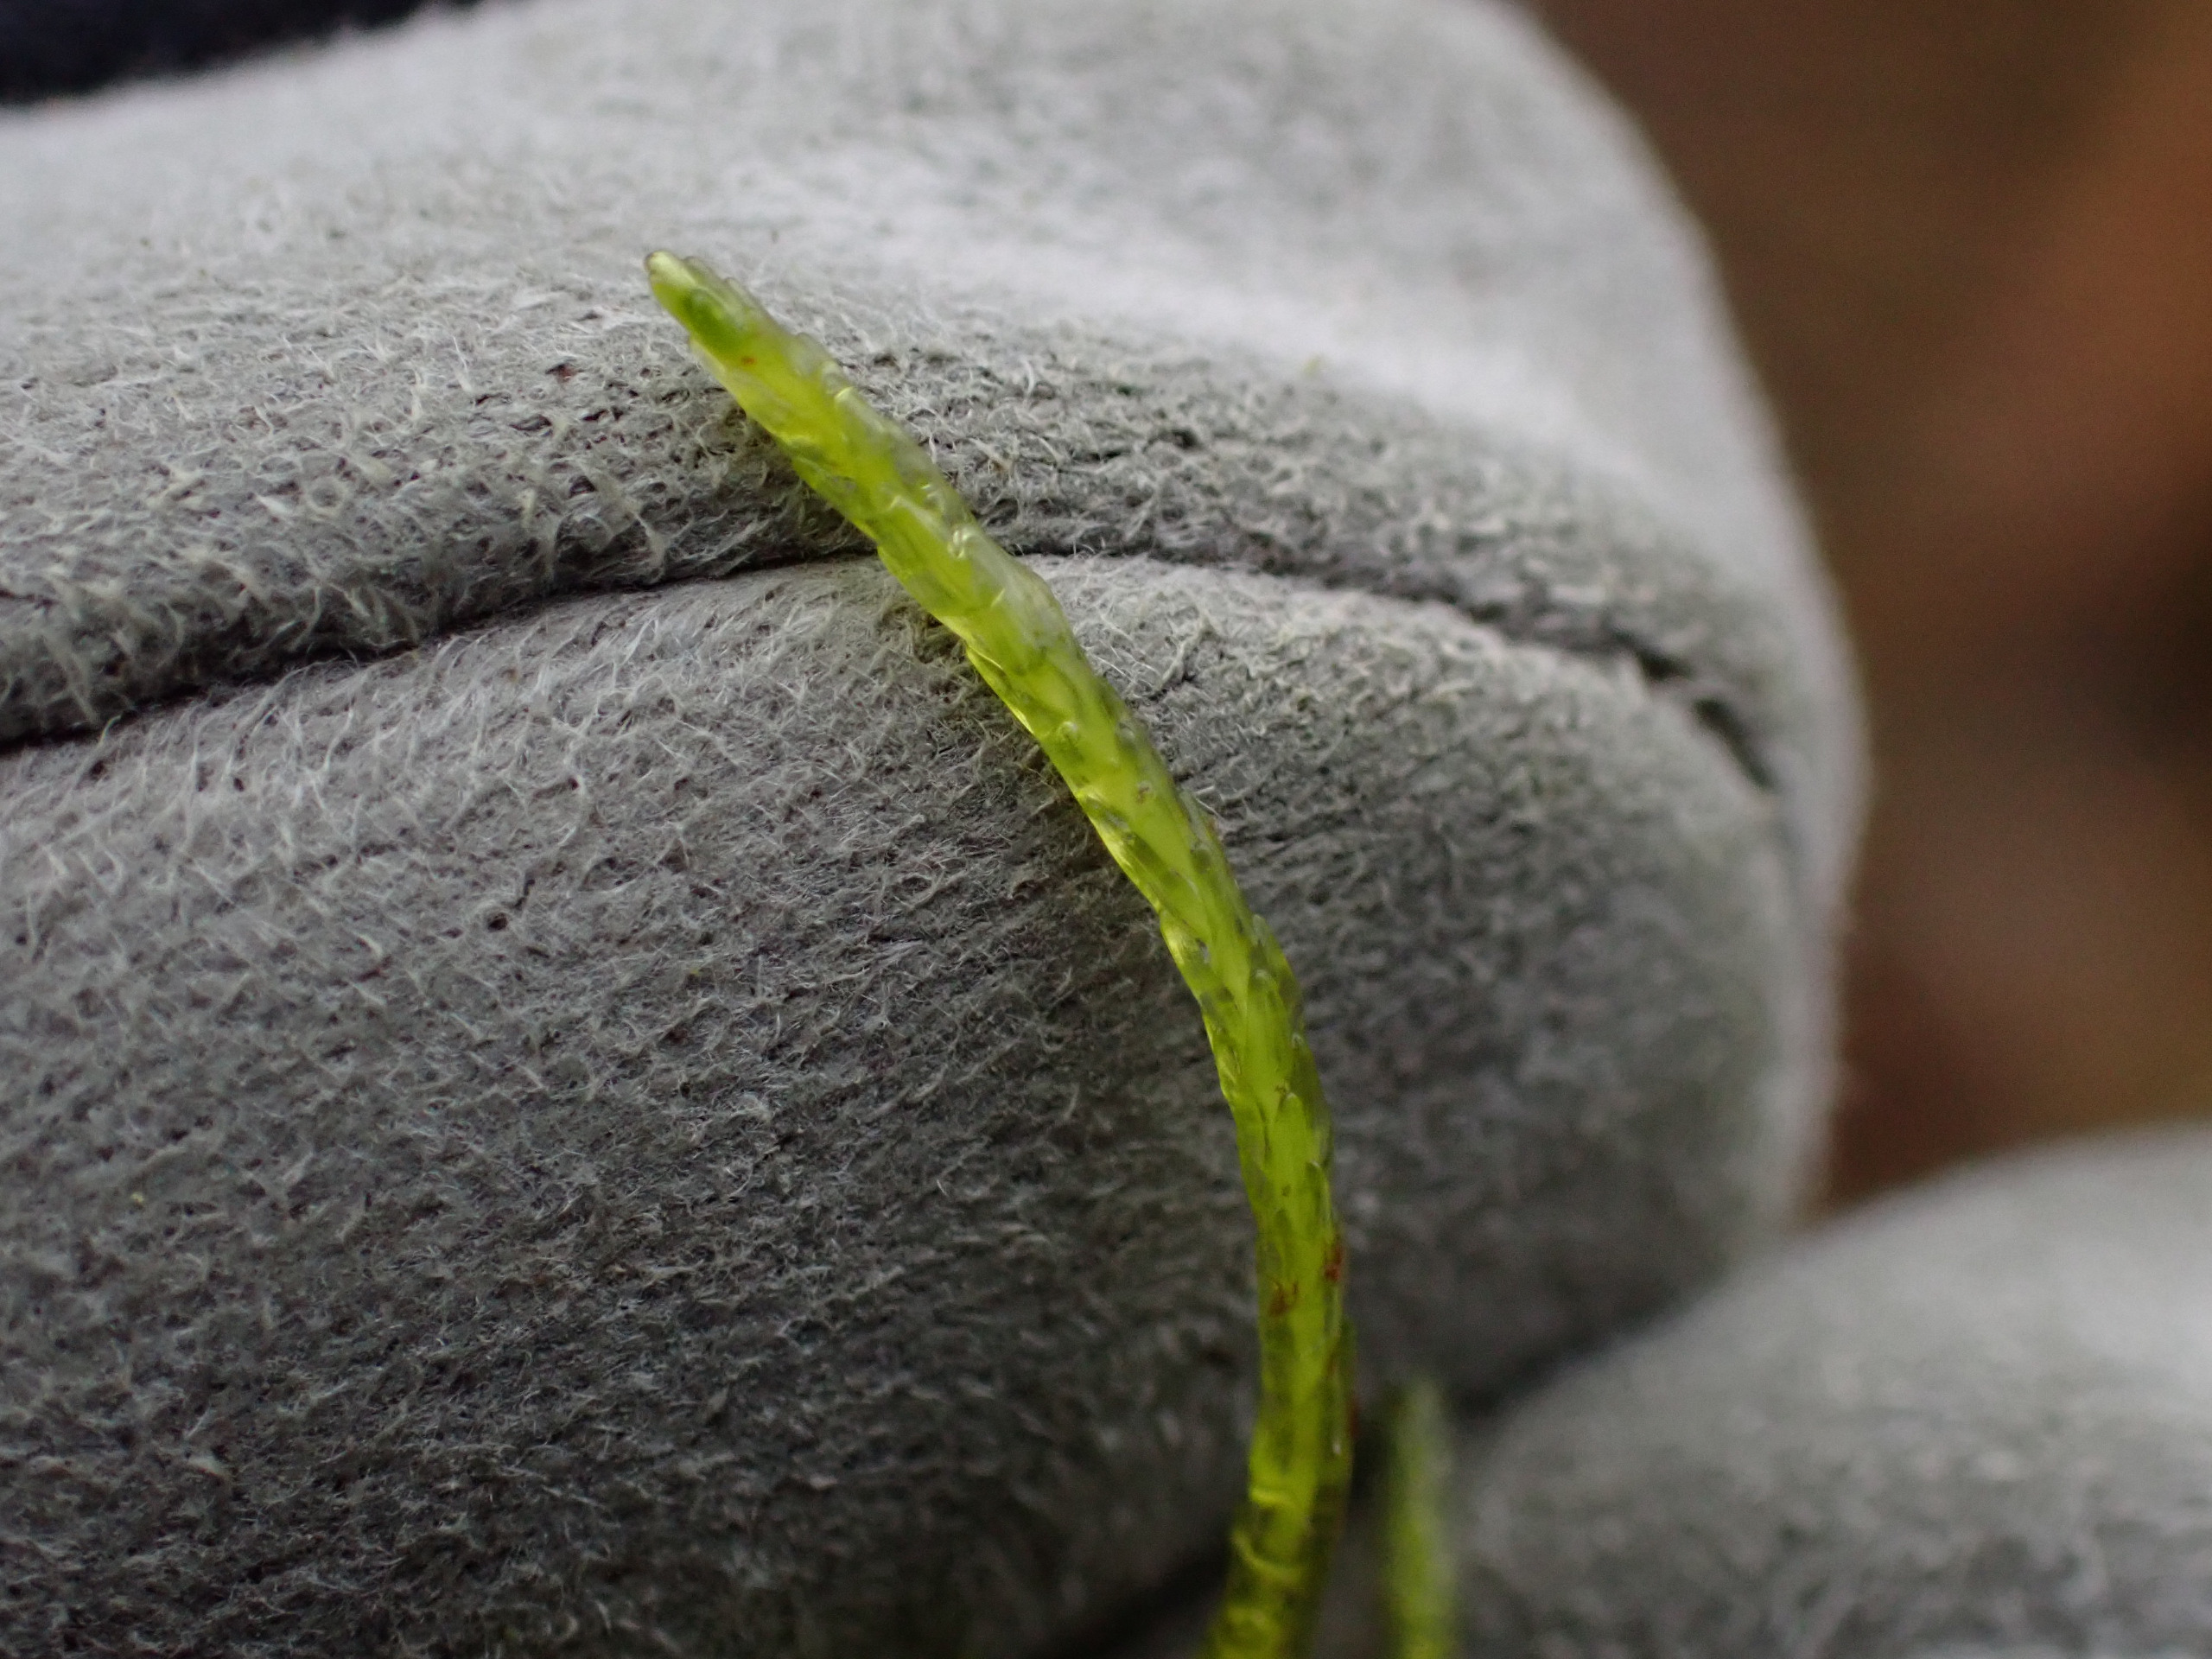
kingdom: Plantae
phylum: Bryophyta
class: Bryopsida
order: Hypnales
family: Calliergonaceae
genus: Straminergon
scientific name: Straminergon stramineum
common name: Tråd-skebladsmos
